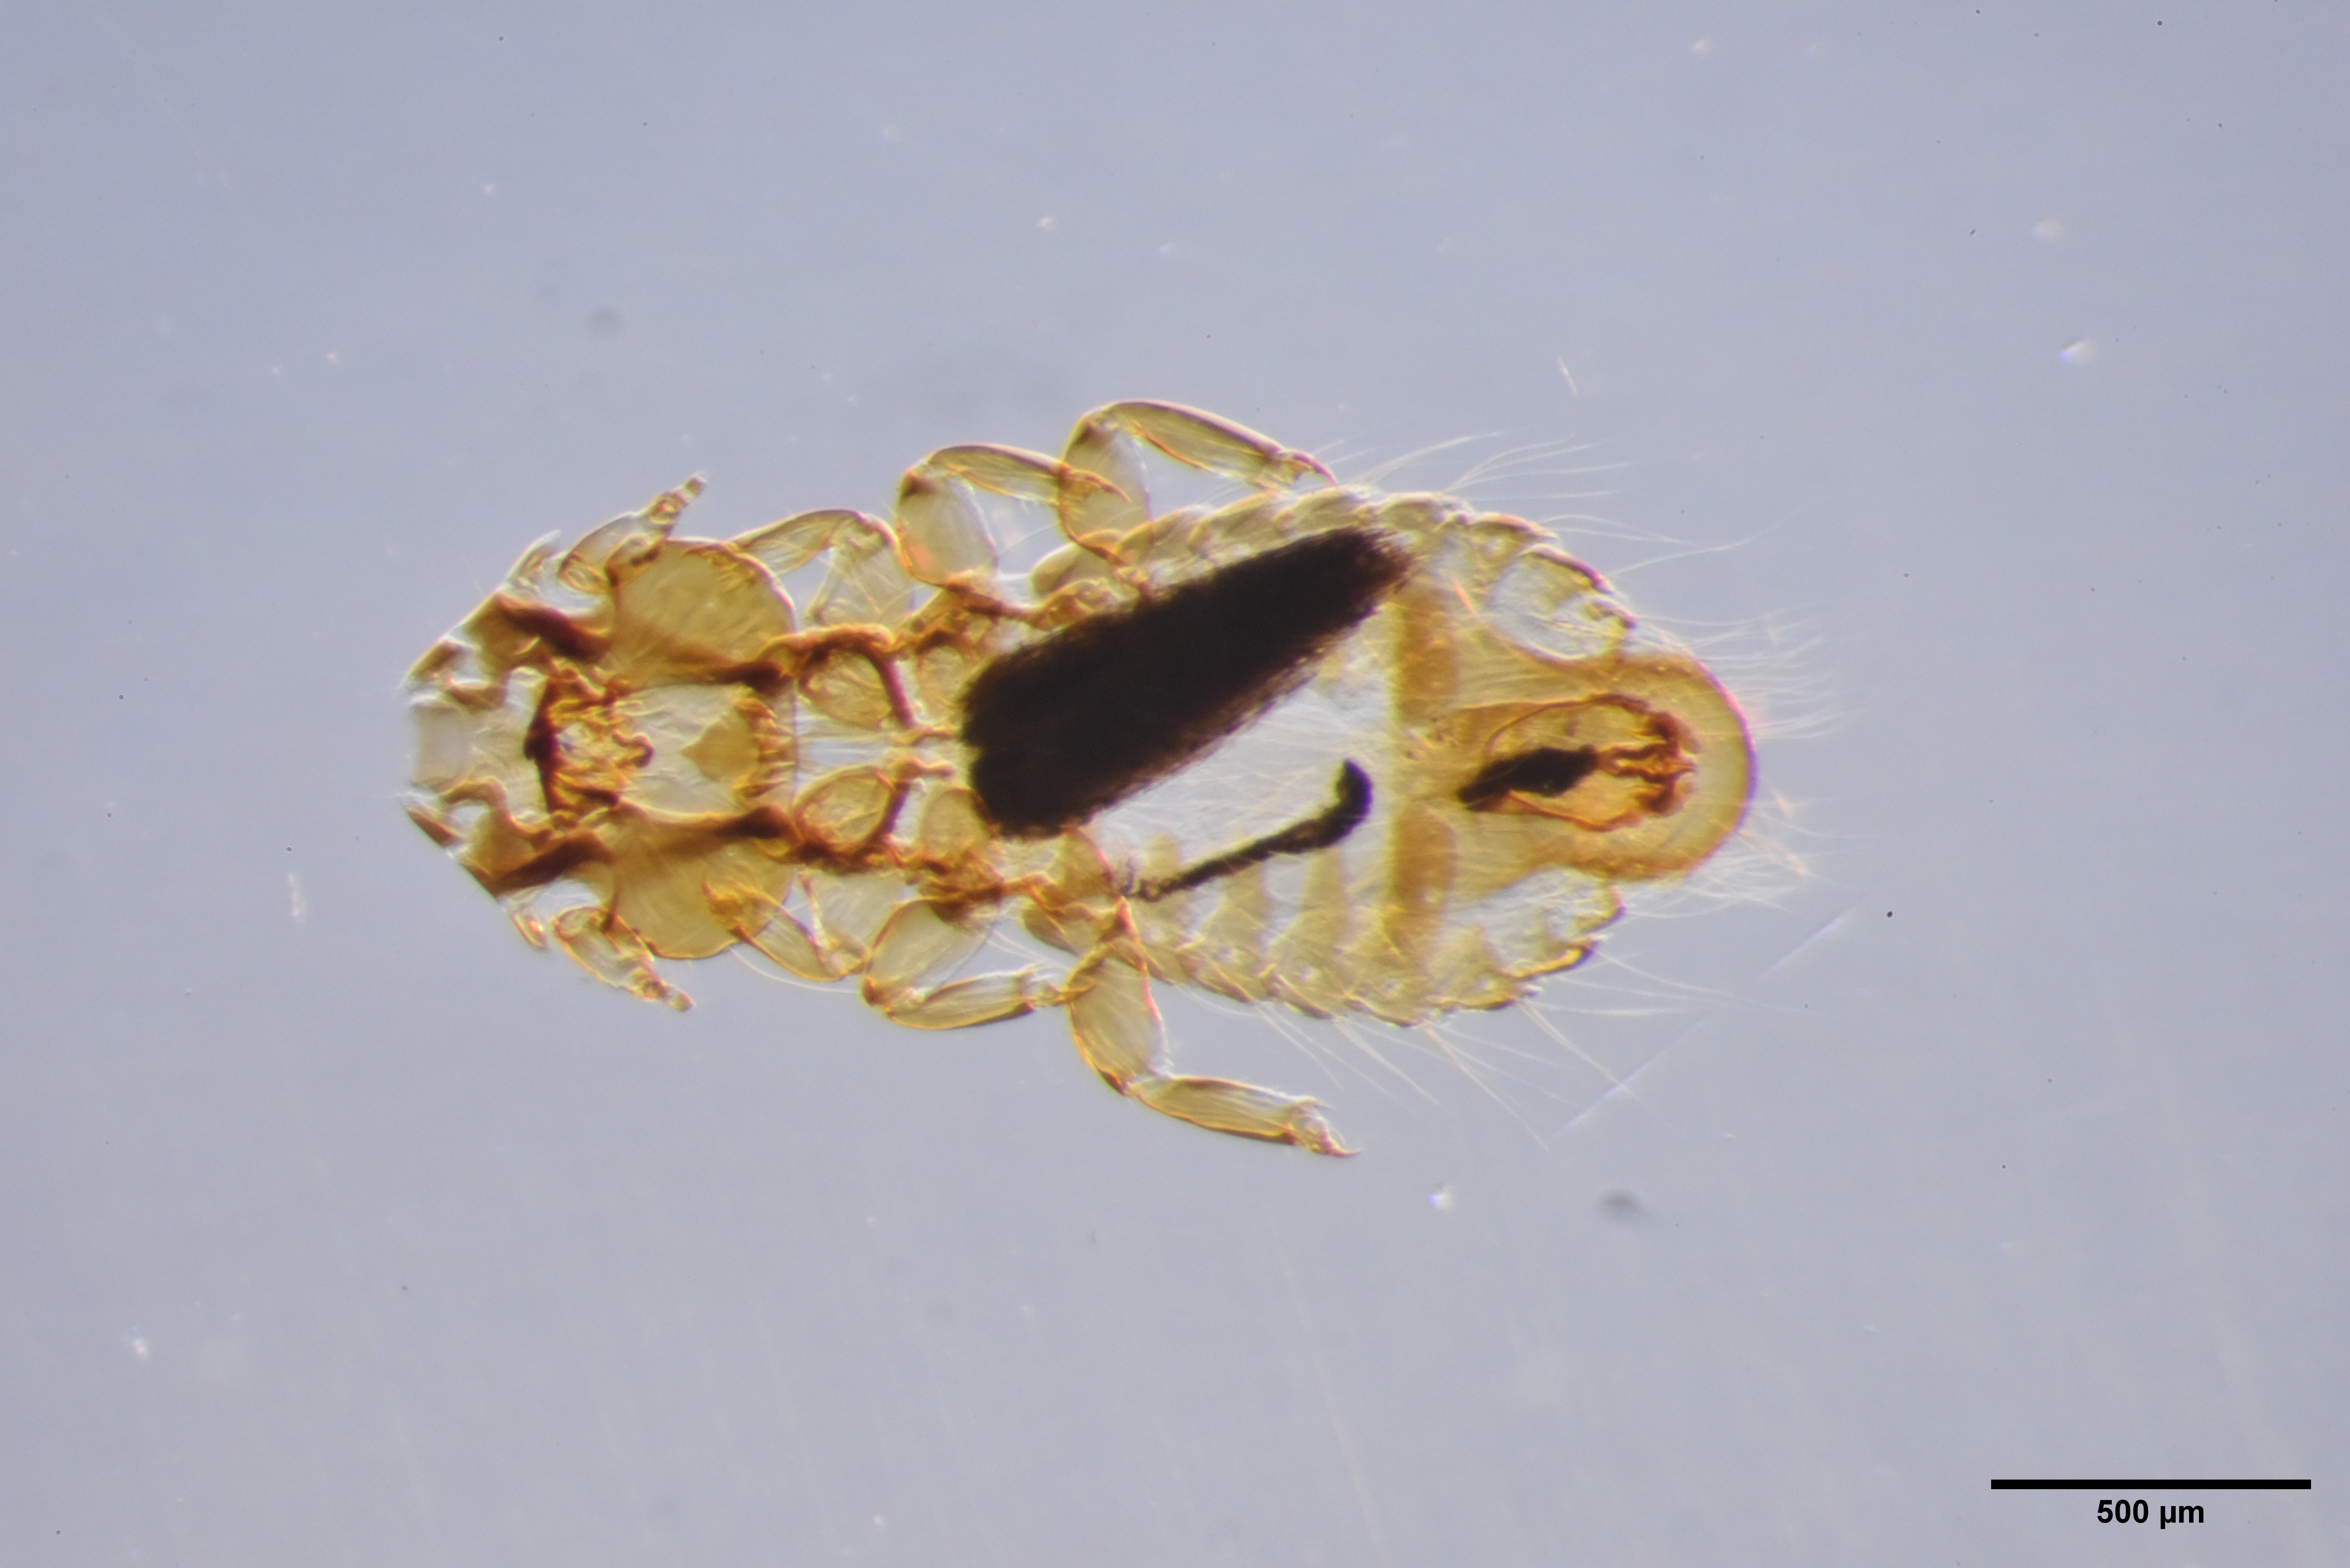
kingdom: Animalia
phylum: Arthropoda
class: Insecta
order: Psocodea
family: Philopteridae
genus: Strigiphilus
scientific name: Strigiphilus
